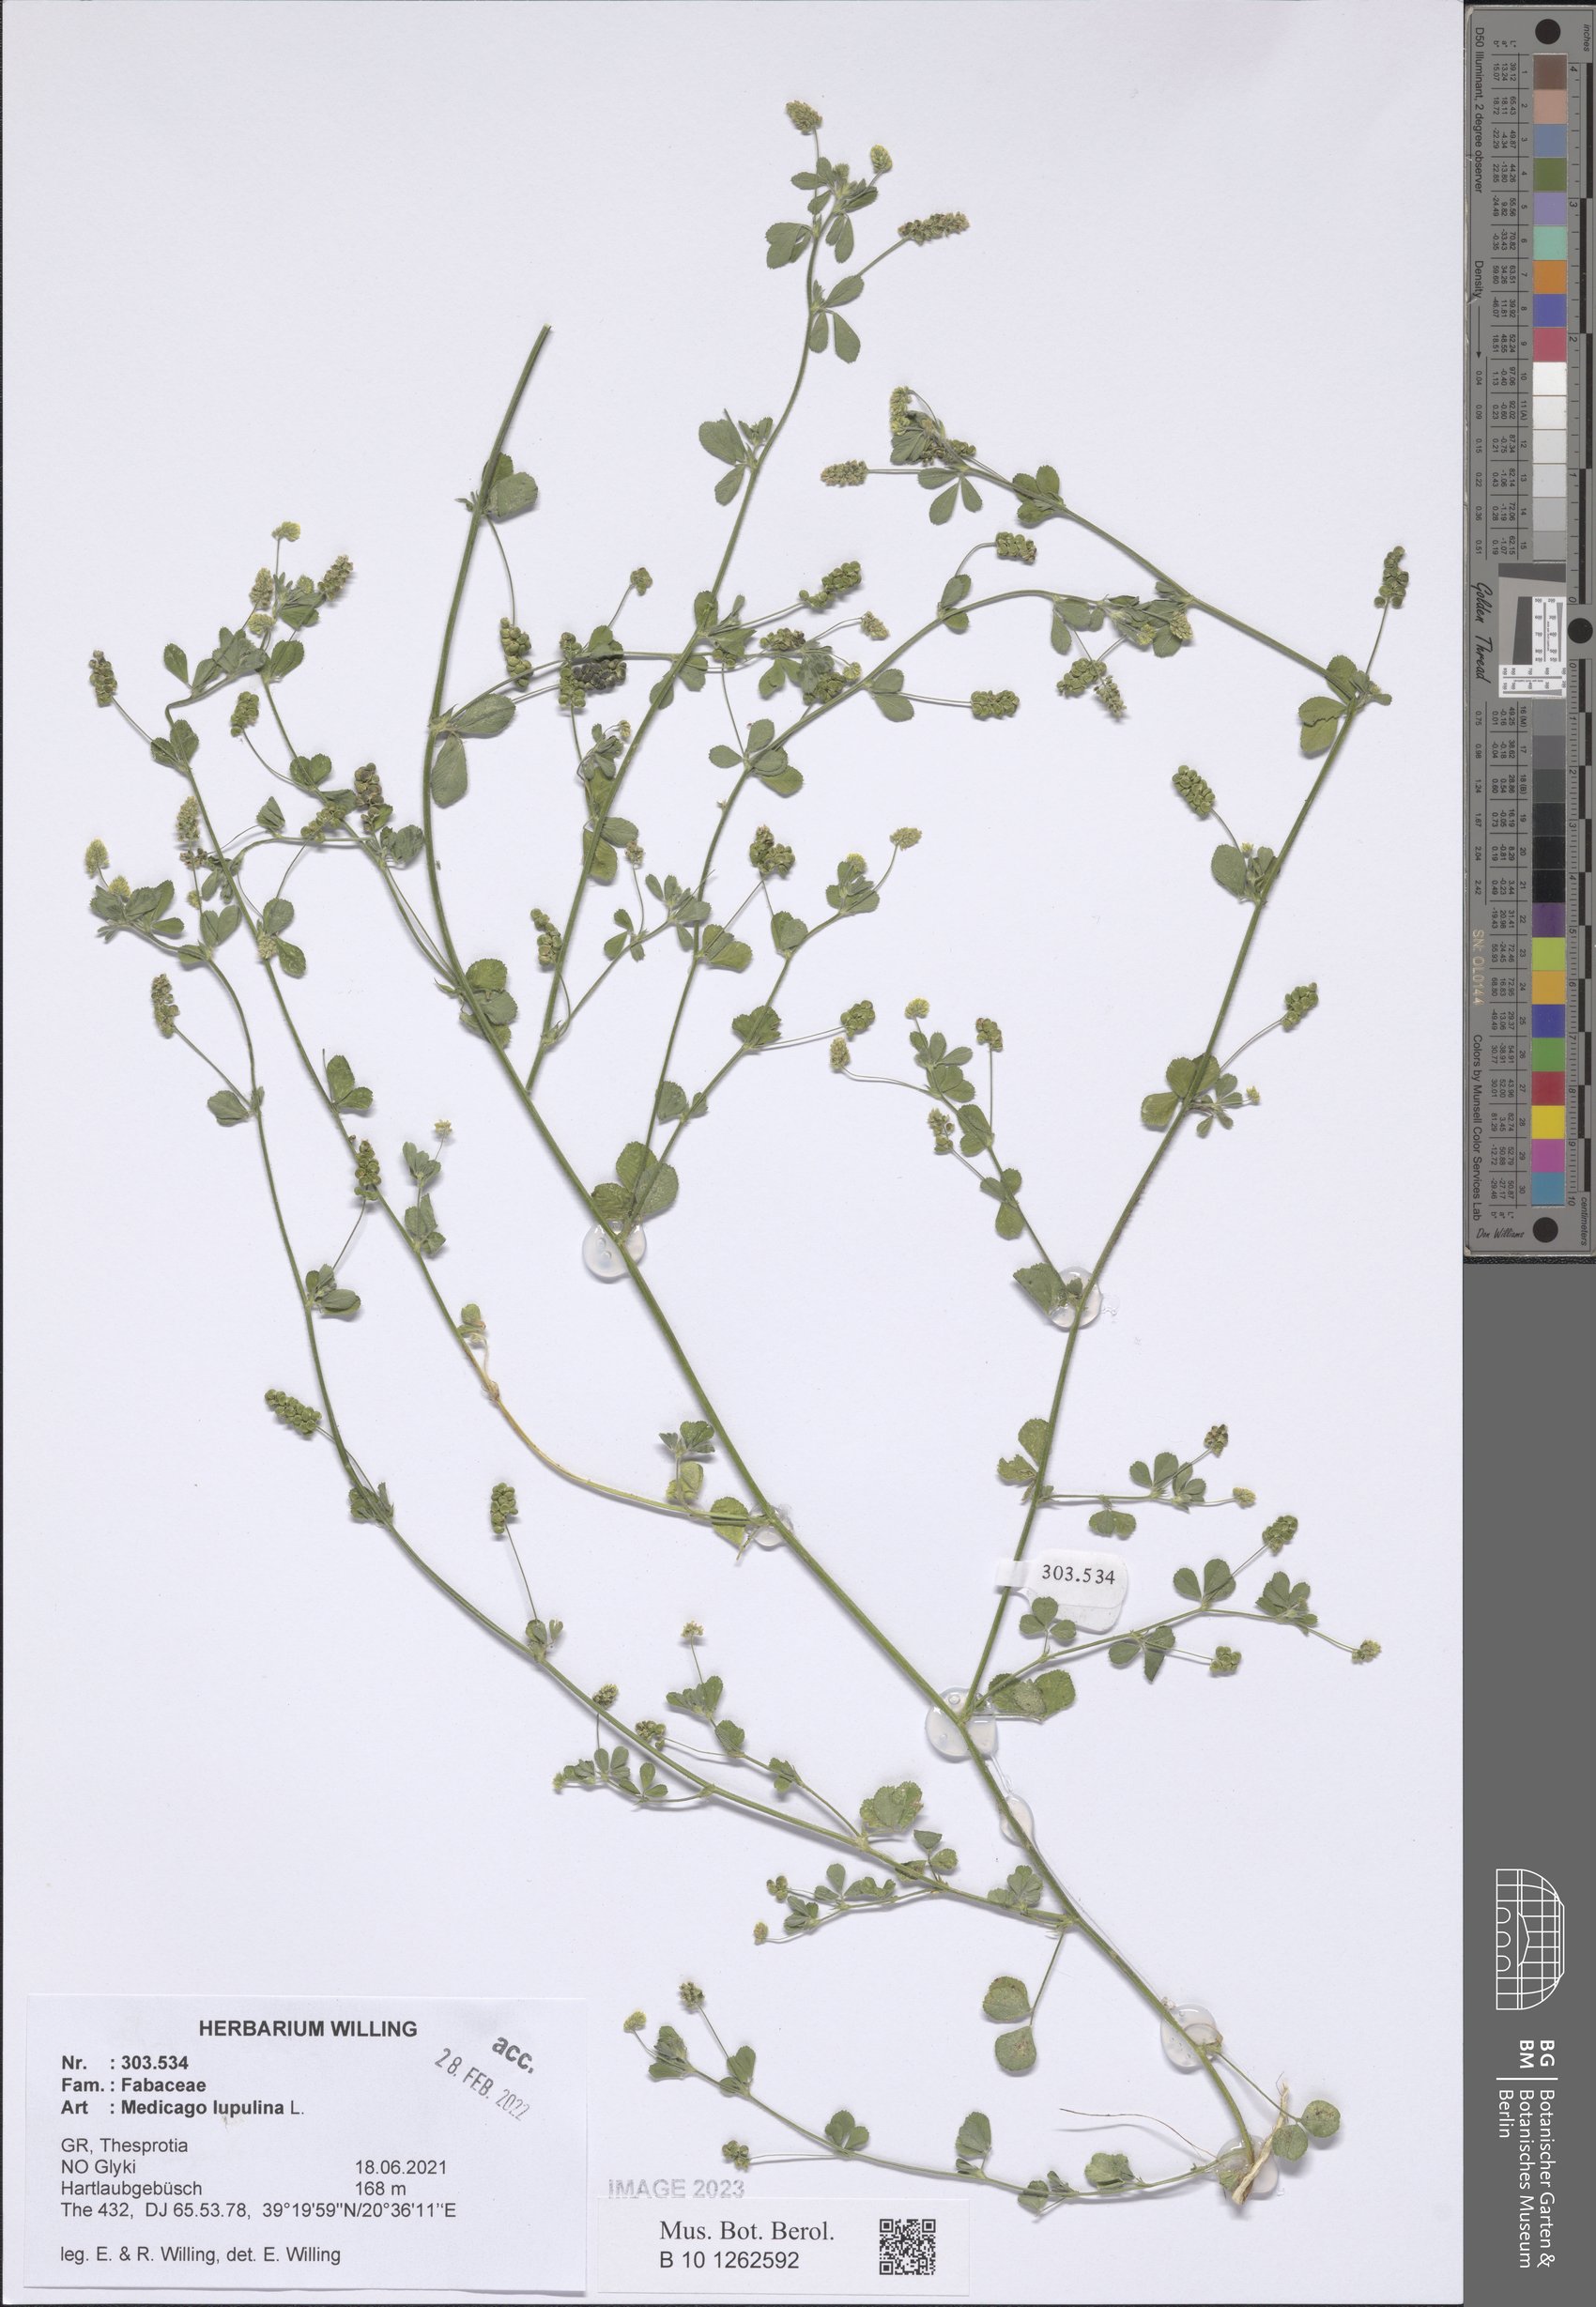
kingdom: Plantae
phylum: Tracheophyta
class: Magnoliopsida
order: Fabales
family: Fabaceae
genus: Medicago
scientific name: Medicago lupulina
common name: Black medick
